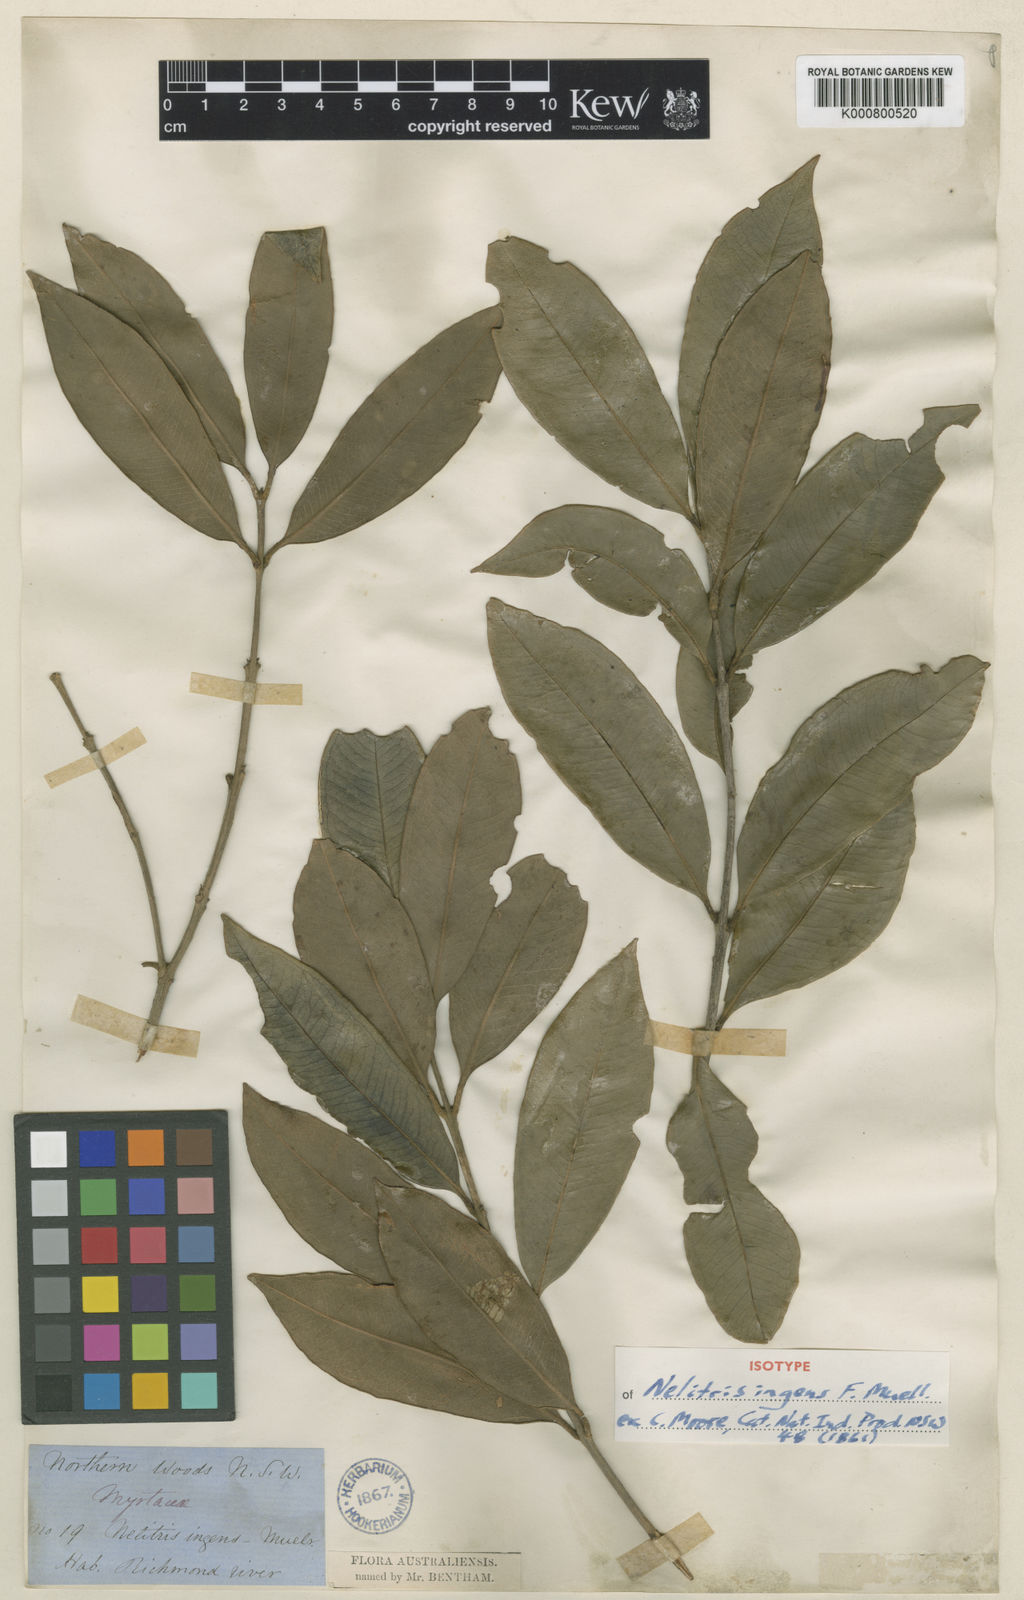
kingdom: Plantae
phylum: Tracheophyta
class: Magnoliopsida
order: Myrtales
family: Myrtaceae
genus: Syzygium
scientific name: Syzygium ingens
